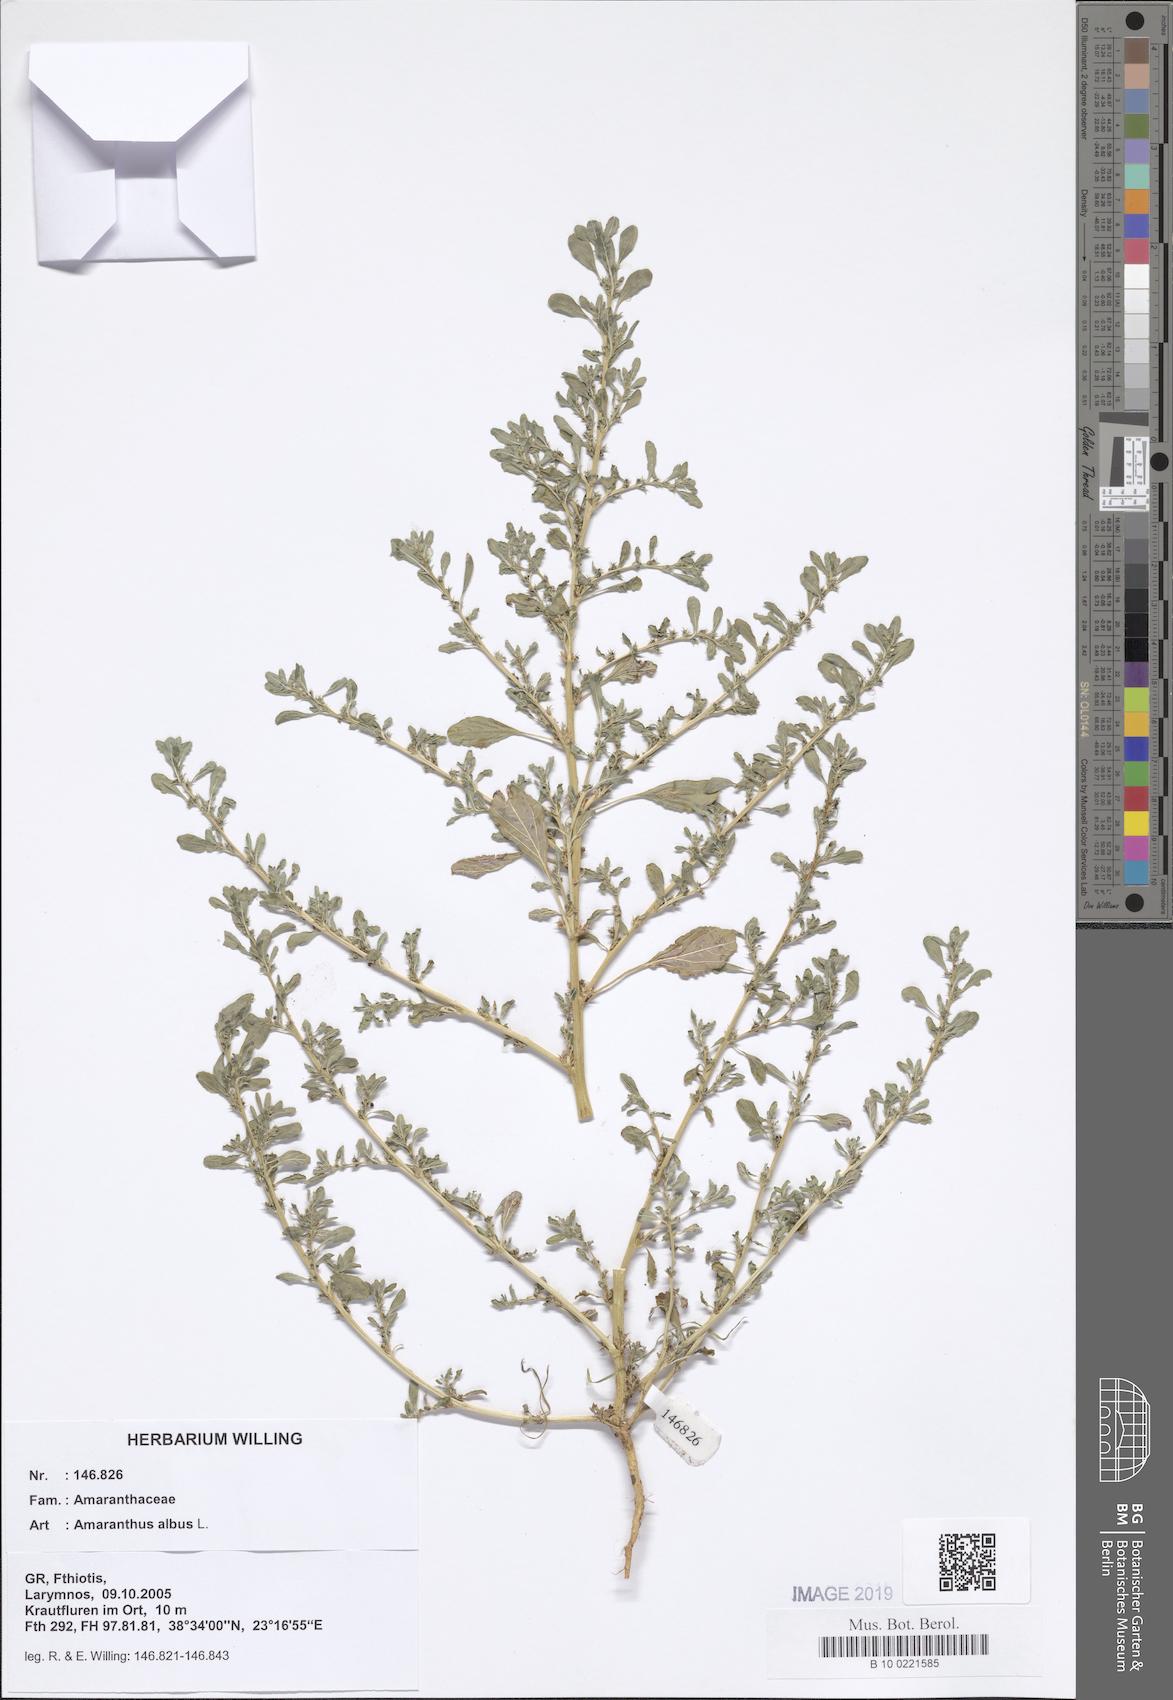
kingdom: Plantae
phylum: Tracheophyta
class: Magnoliopsida
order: Caryophyllales
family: Amaranthaceae
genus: Amaranthus
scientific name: Amaranthus albus
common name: White pigweed
